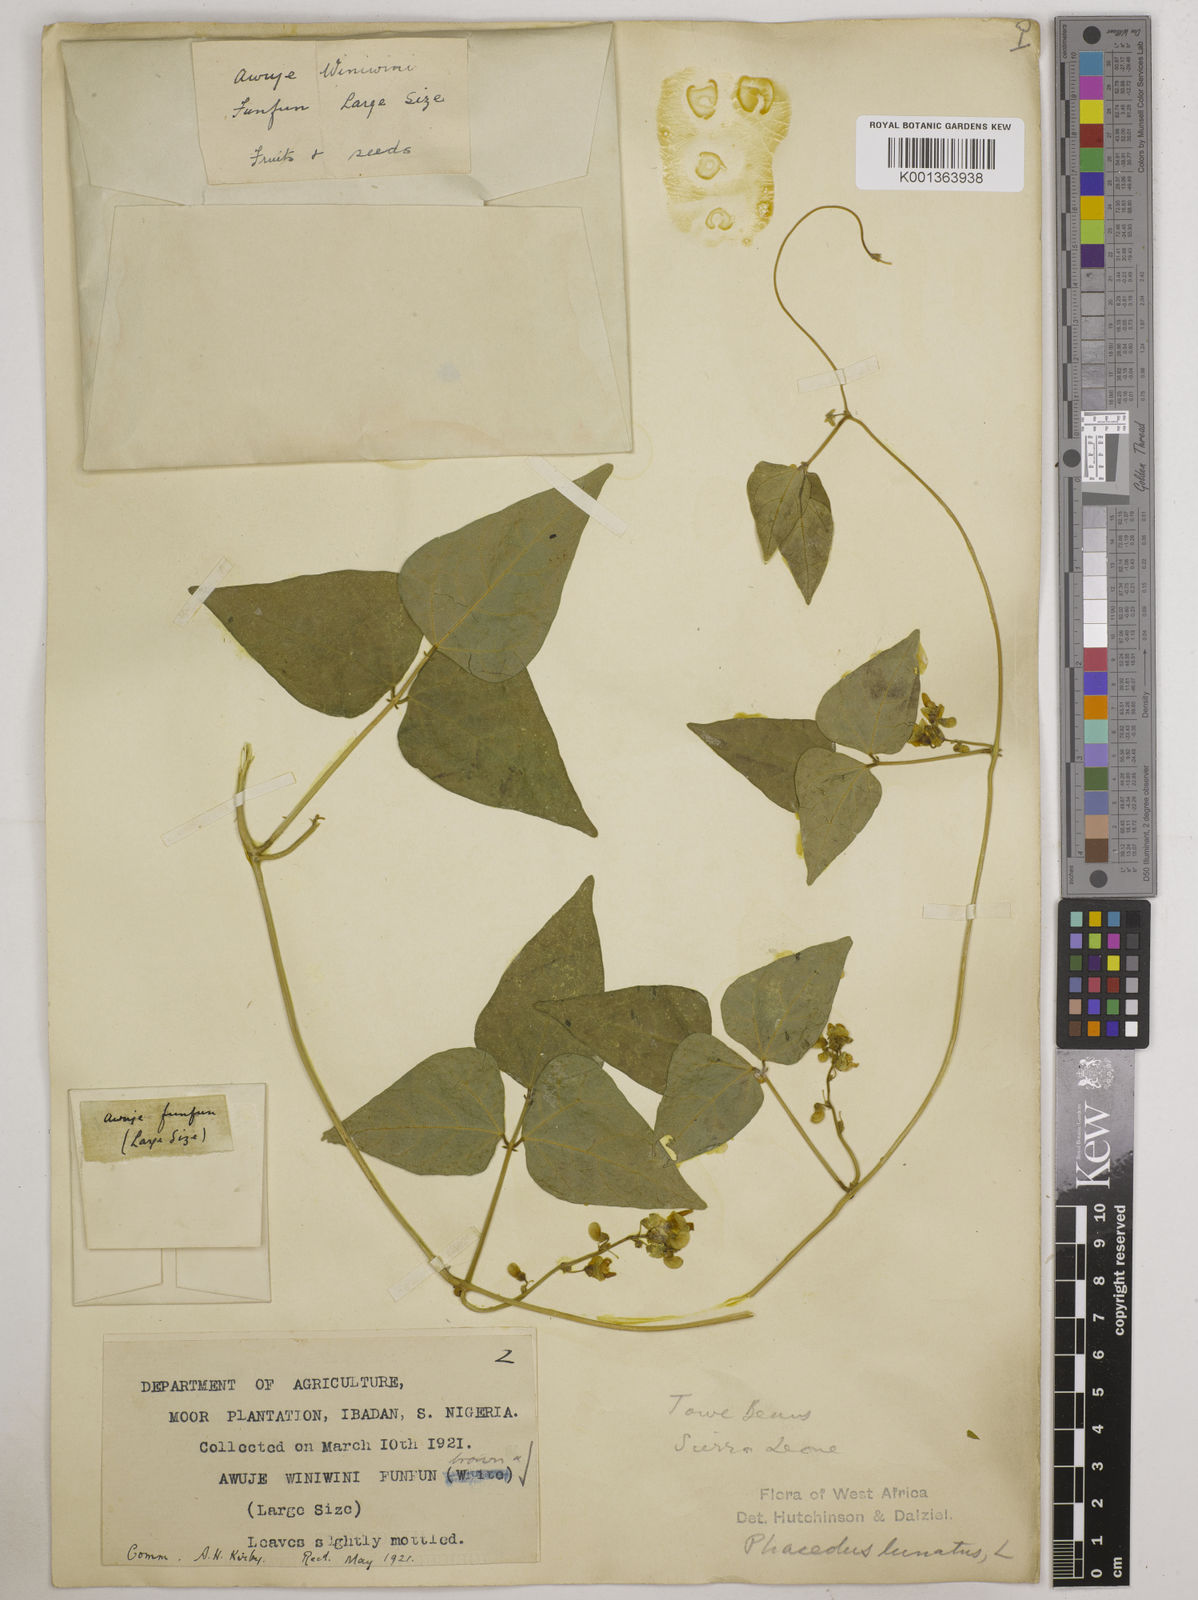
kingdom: Plantae
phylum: Tracheophyta
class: Magnoliopsida
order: Fabales
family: Fabaceae
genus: Phaseolus
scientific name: Phaseolus lunatus
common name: Sieva bean
